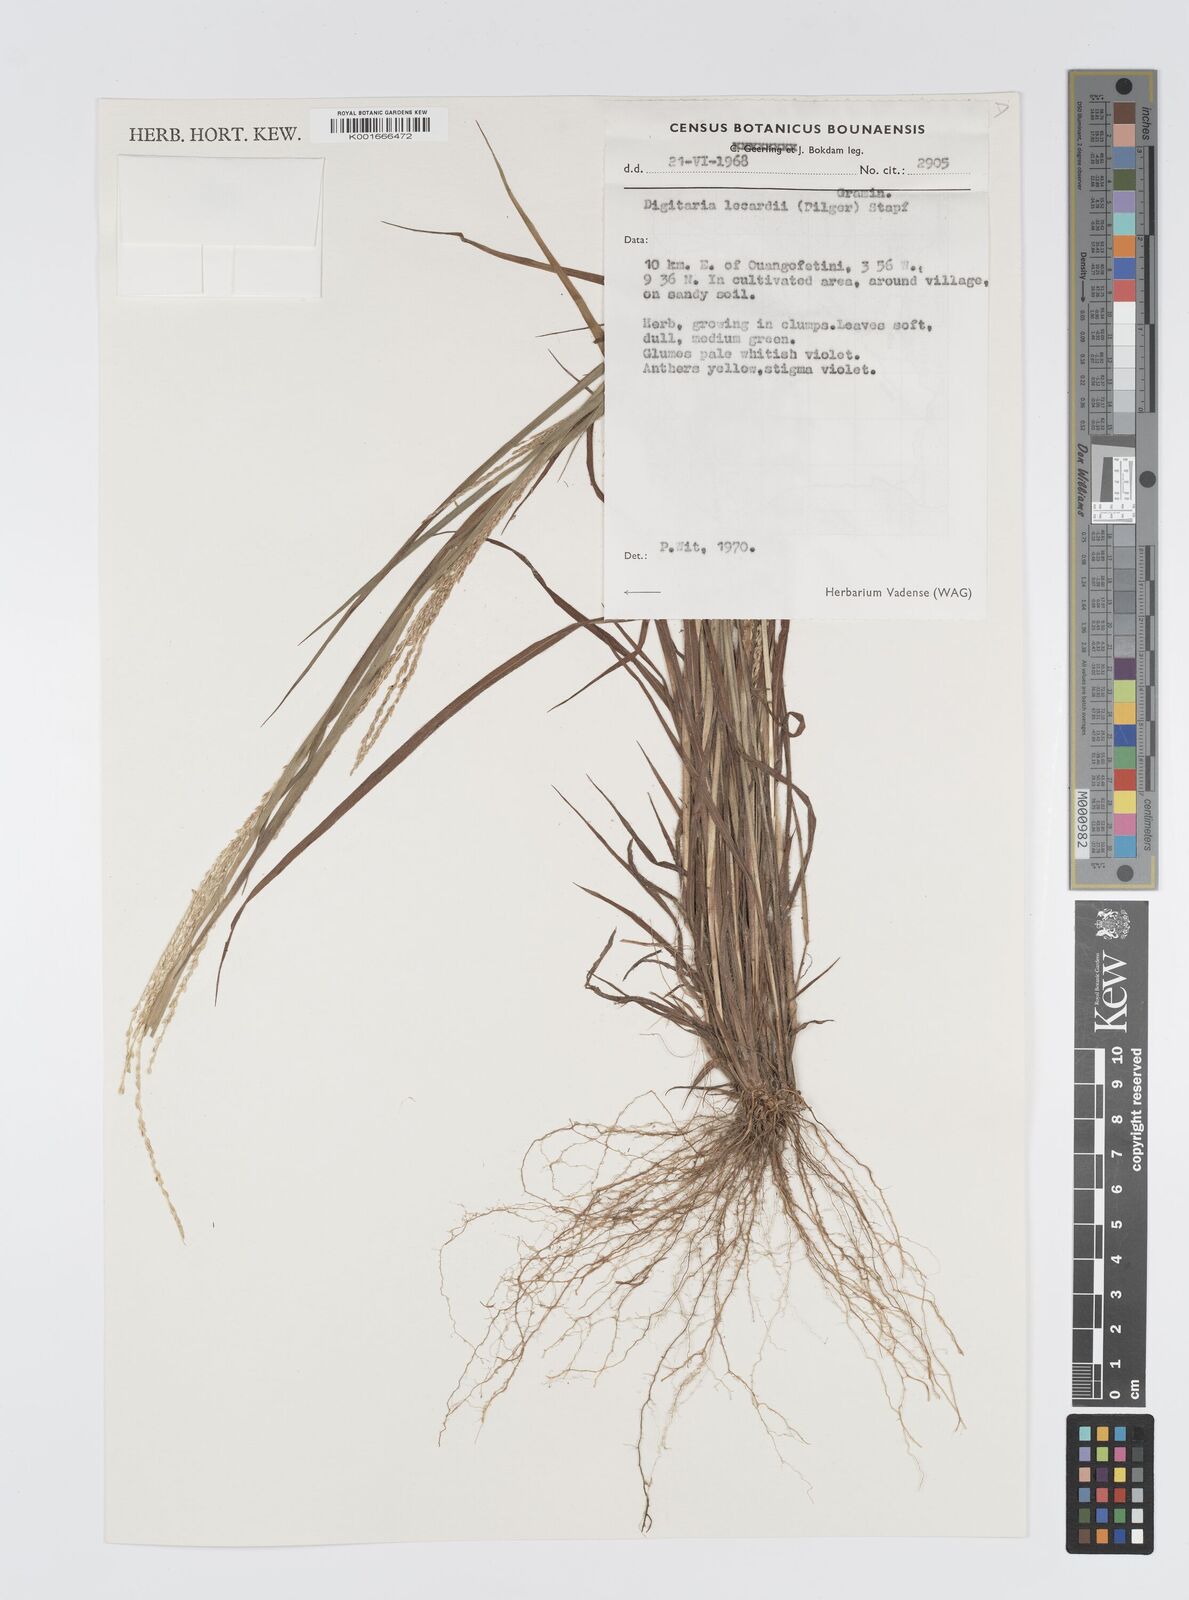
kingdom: Plantae
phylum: Tracheophyta
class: Liliopsida
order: Poales
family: Poaceae
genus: Digitaria
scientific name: Digitaria argillacea
